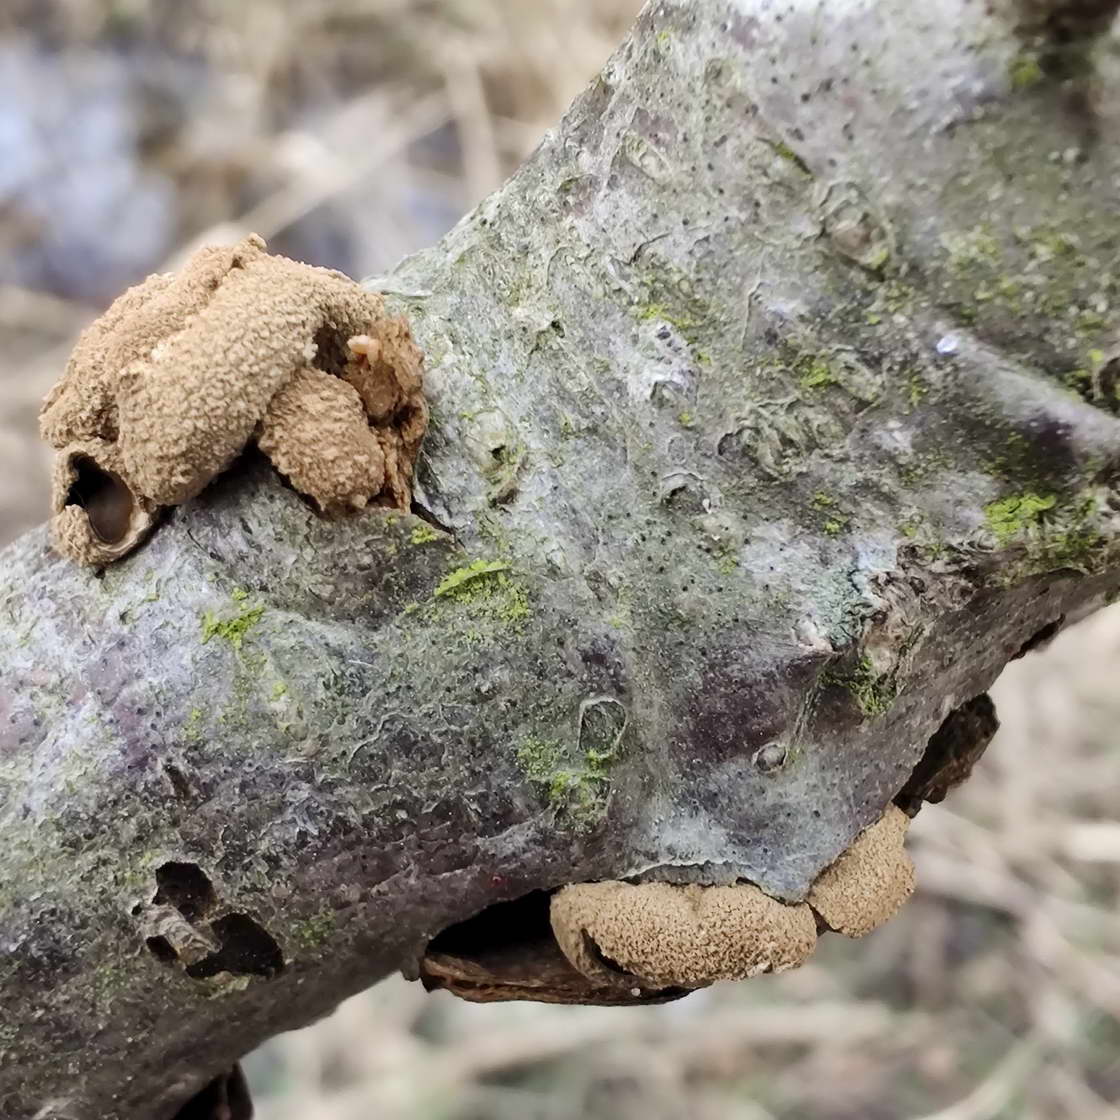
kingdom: Fungi
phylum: Ascomycota
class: Leotiomycetes
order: Helotiales
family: Cenangiaceae
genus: Encoelia
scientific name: Encoelia furfuracea
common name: hassel-læderskive
